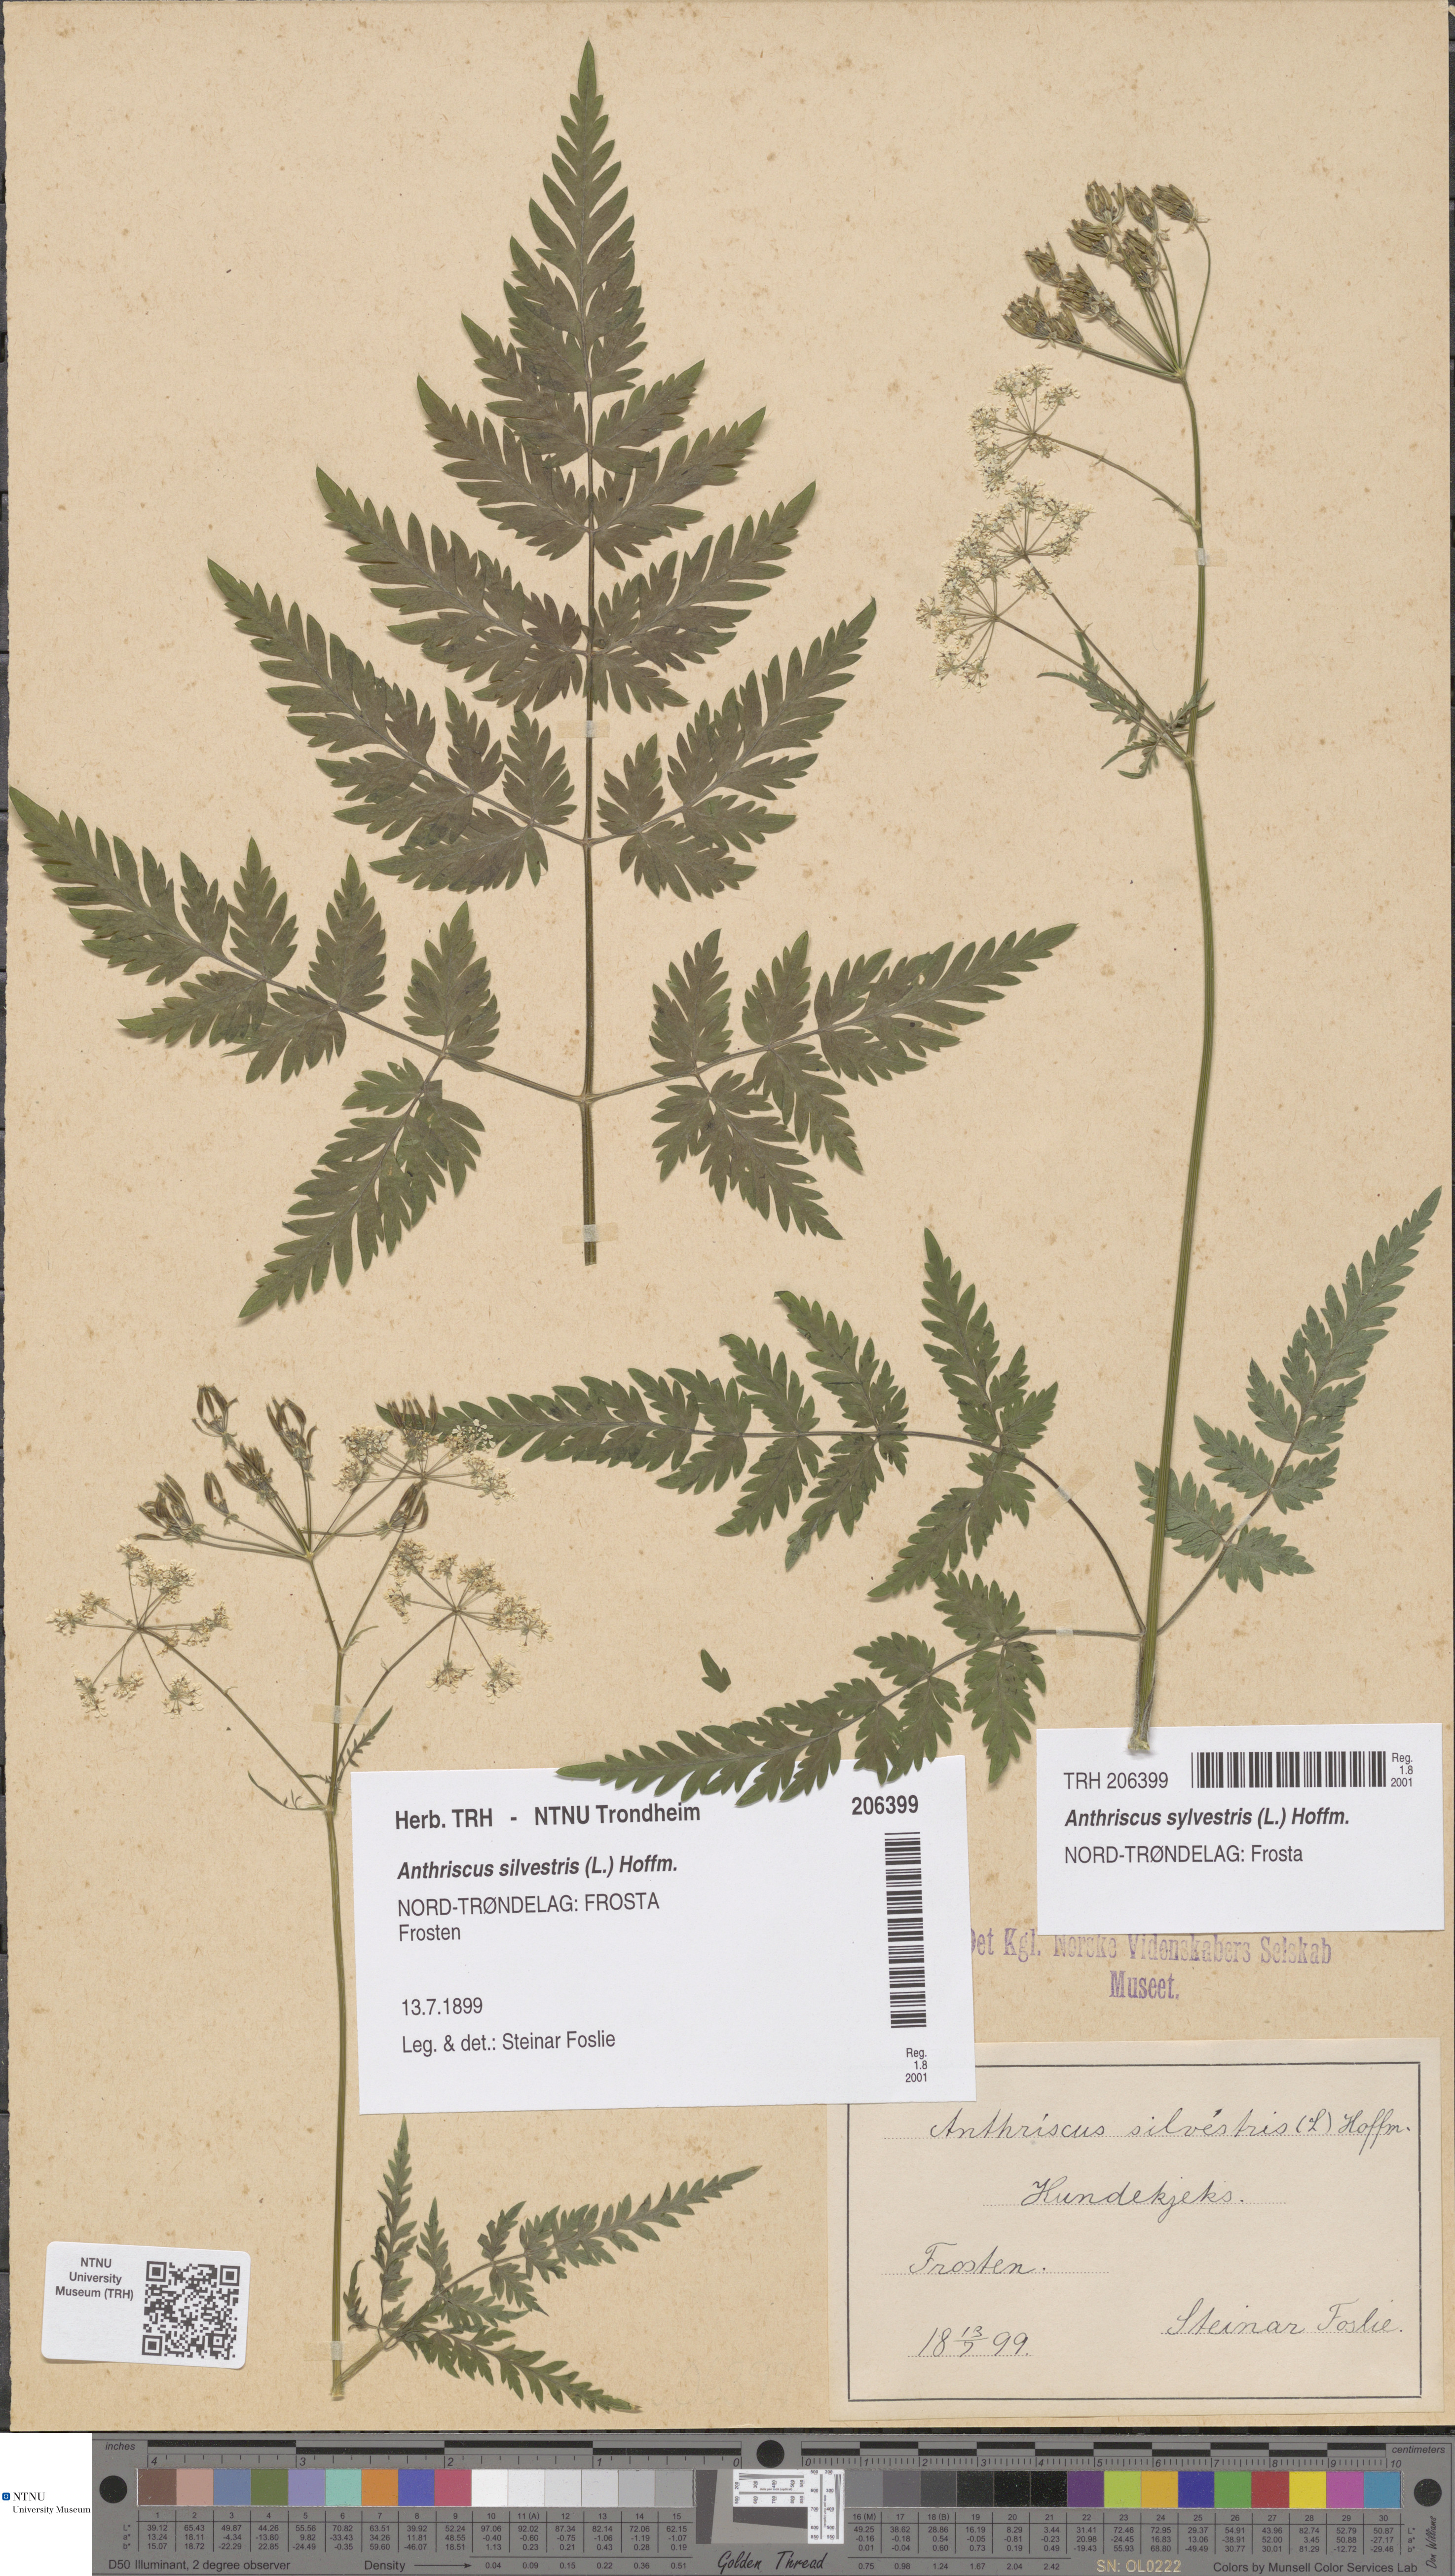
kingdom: Plantae
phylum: Tracheophyta
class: Magnoliopsida
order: Apiales
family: Apiaceae
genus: Anthriscus
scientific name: Anthriscus sylvestris
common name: Cow parsley
